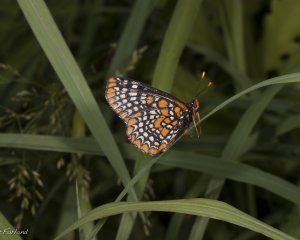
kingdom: Animalia
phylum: Arthropoda
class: Insecta
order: Lepidoptera
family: Nymphalidae
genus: Euphydryas
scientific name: Euphydryas phaeton
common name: Baltimore Checkerspot
